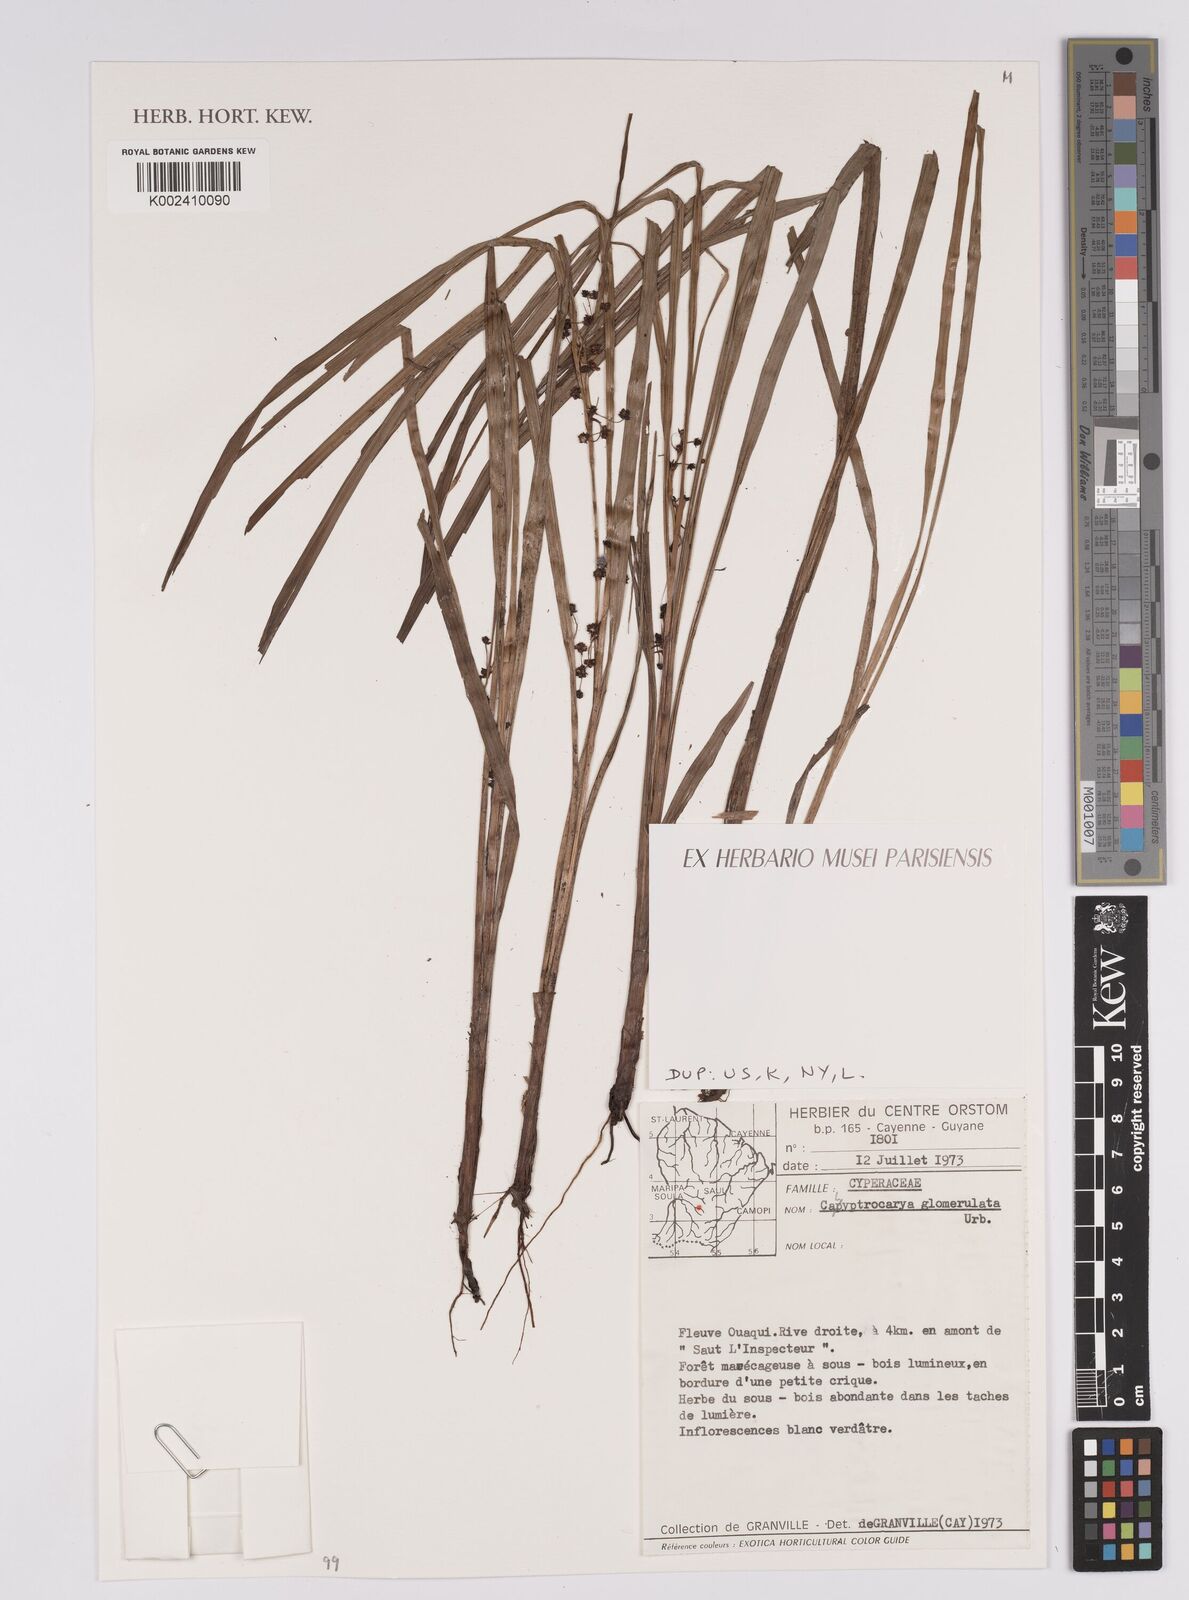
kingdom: Plantae
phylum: Tracheophyta
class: Liliopsida
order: Poales
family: Cyperaceae
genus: Calyptrocarya
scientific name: Calyptrocarya
